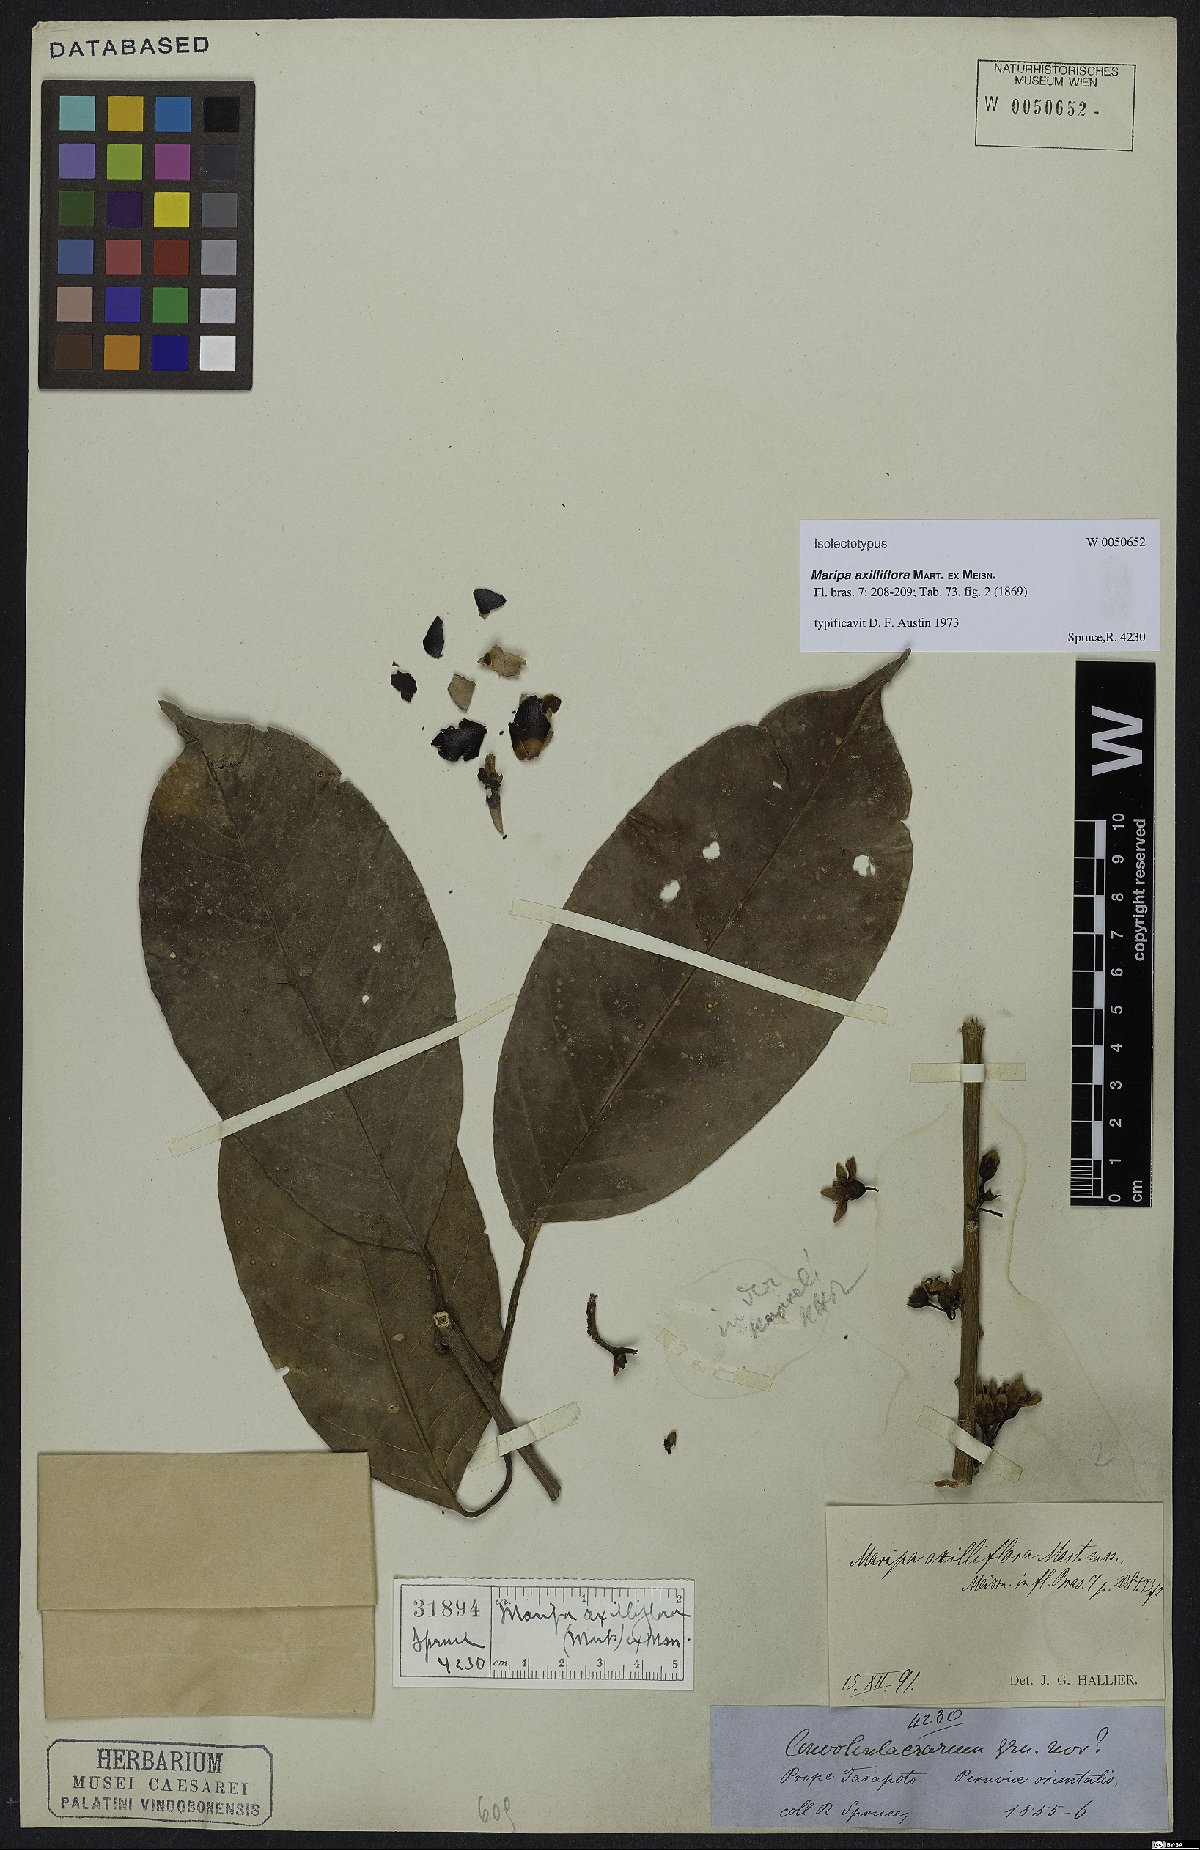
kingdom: Plantae
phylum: Tracheophyta
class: Magnoliopsida
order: Solanales
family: Convolvulaceae
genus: Maripa
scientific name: Maripa axilliflora
